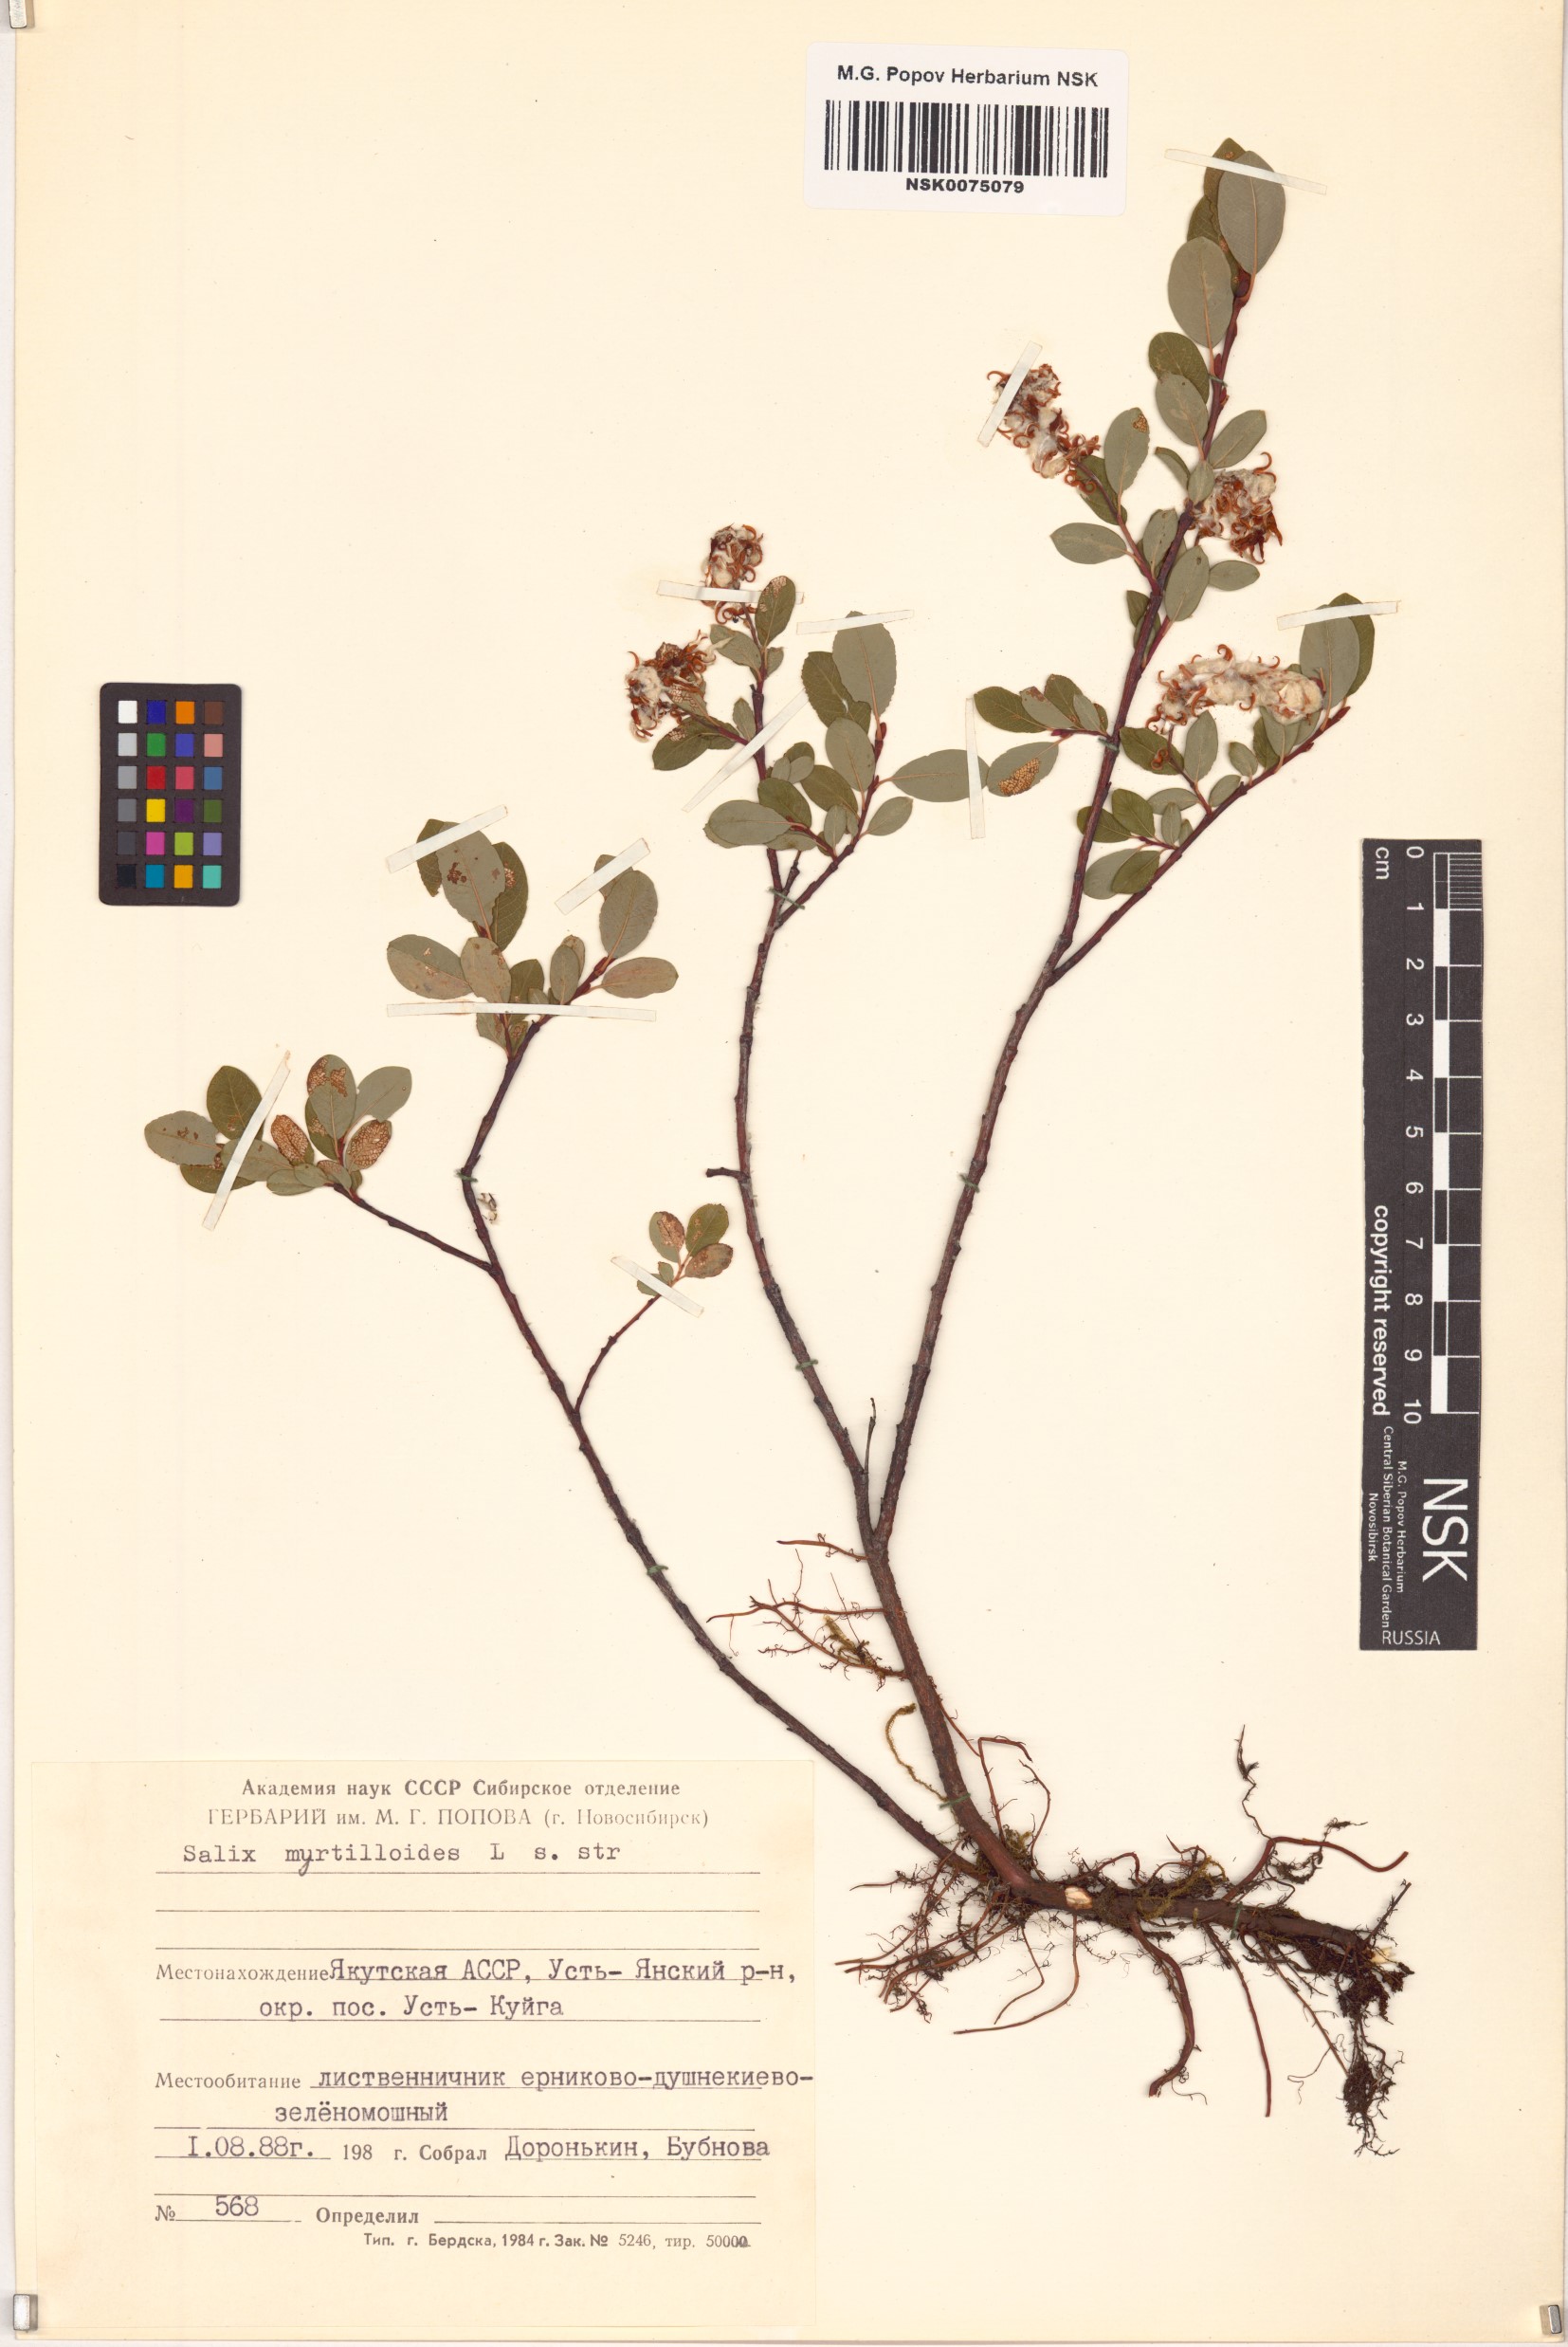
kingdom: Plantae
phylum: Tracheophyta
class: Magnoliopsida
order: Malpighiales
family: Salicaceae
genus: Salix
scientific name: Salix myrtilloides
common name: Myrtle-leaved willow
